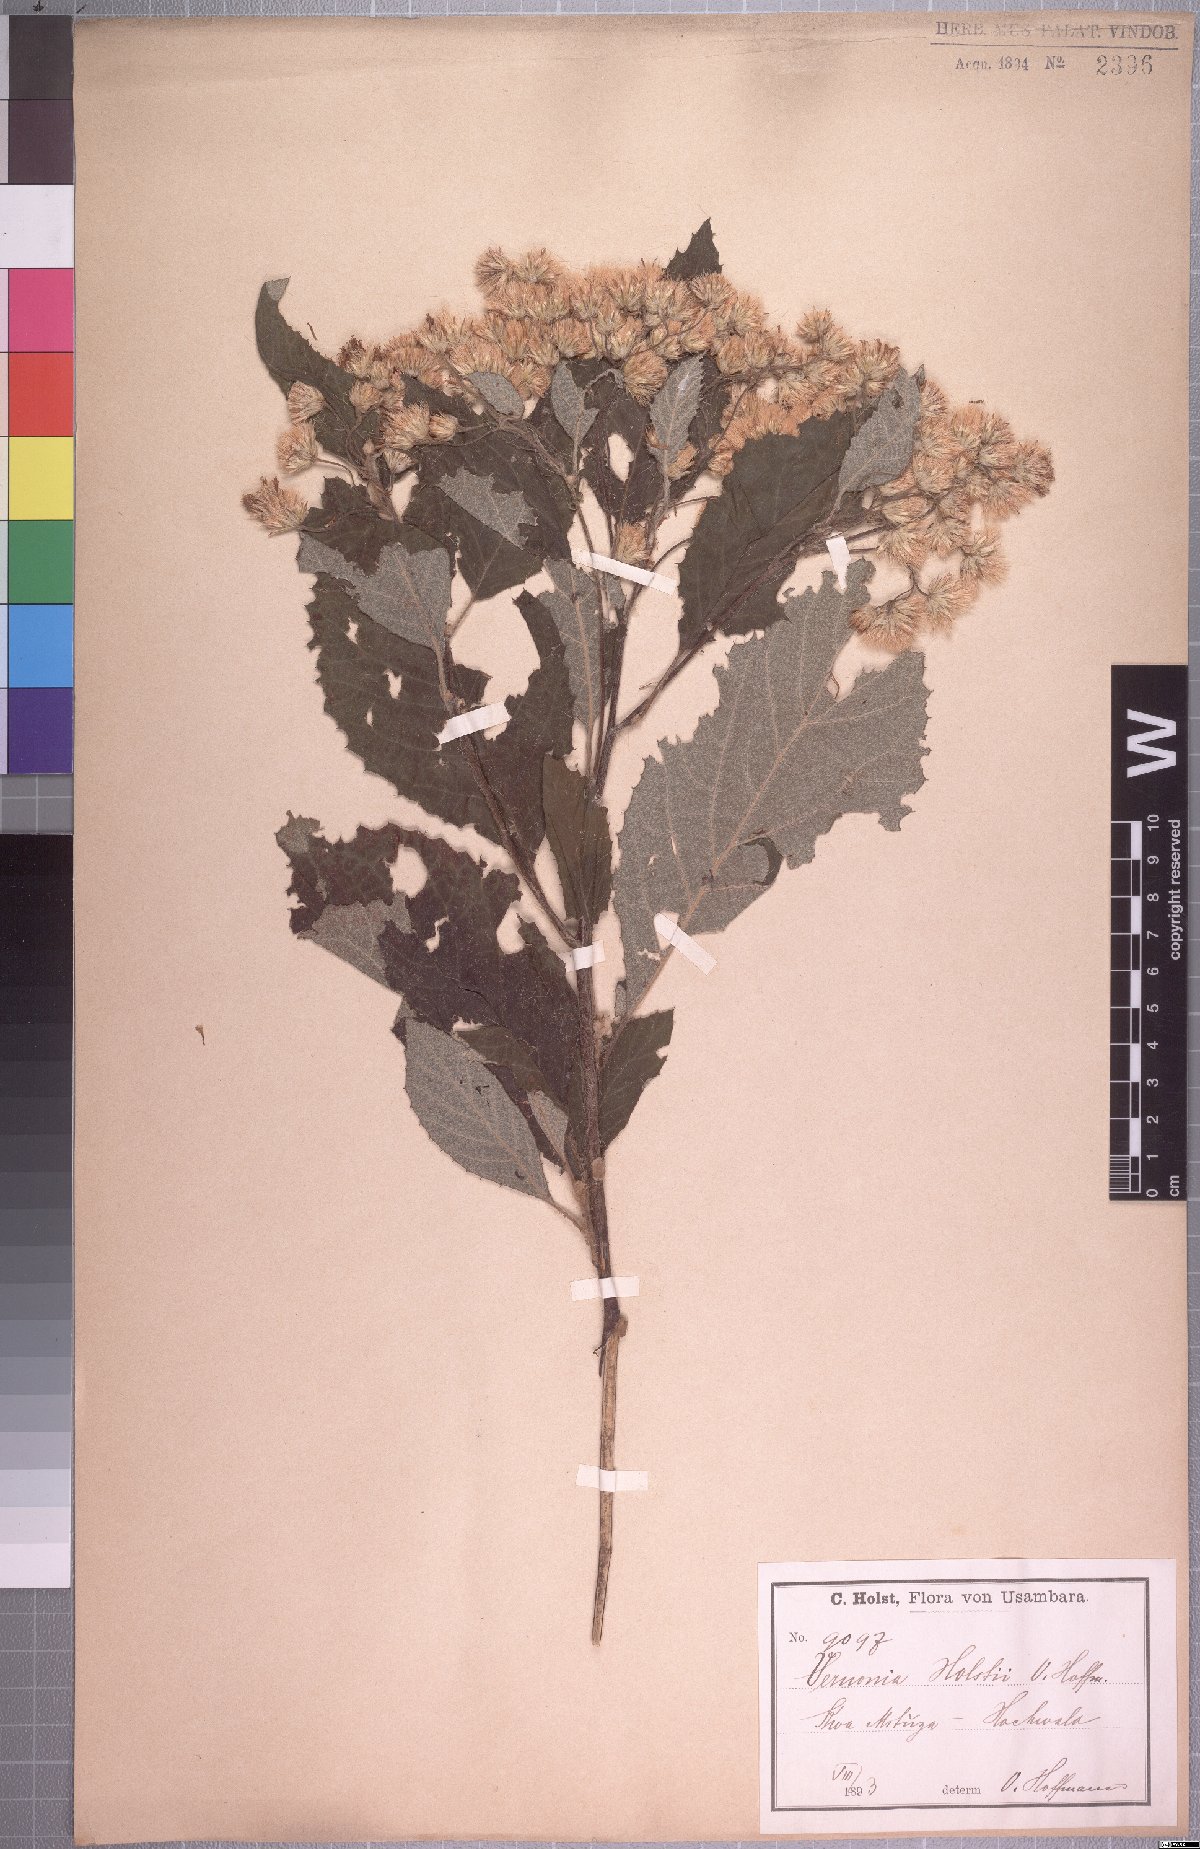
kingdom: Plantae
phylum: Tracheophyta
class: Magnoliopsida
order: Asterales
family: Asteraceae
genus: Vernonia
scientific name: Vernonia holstii
